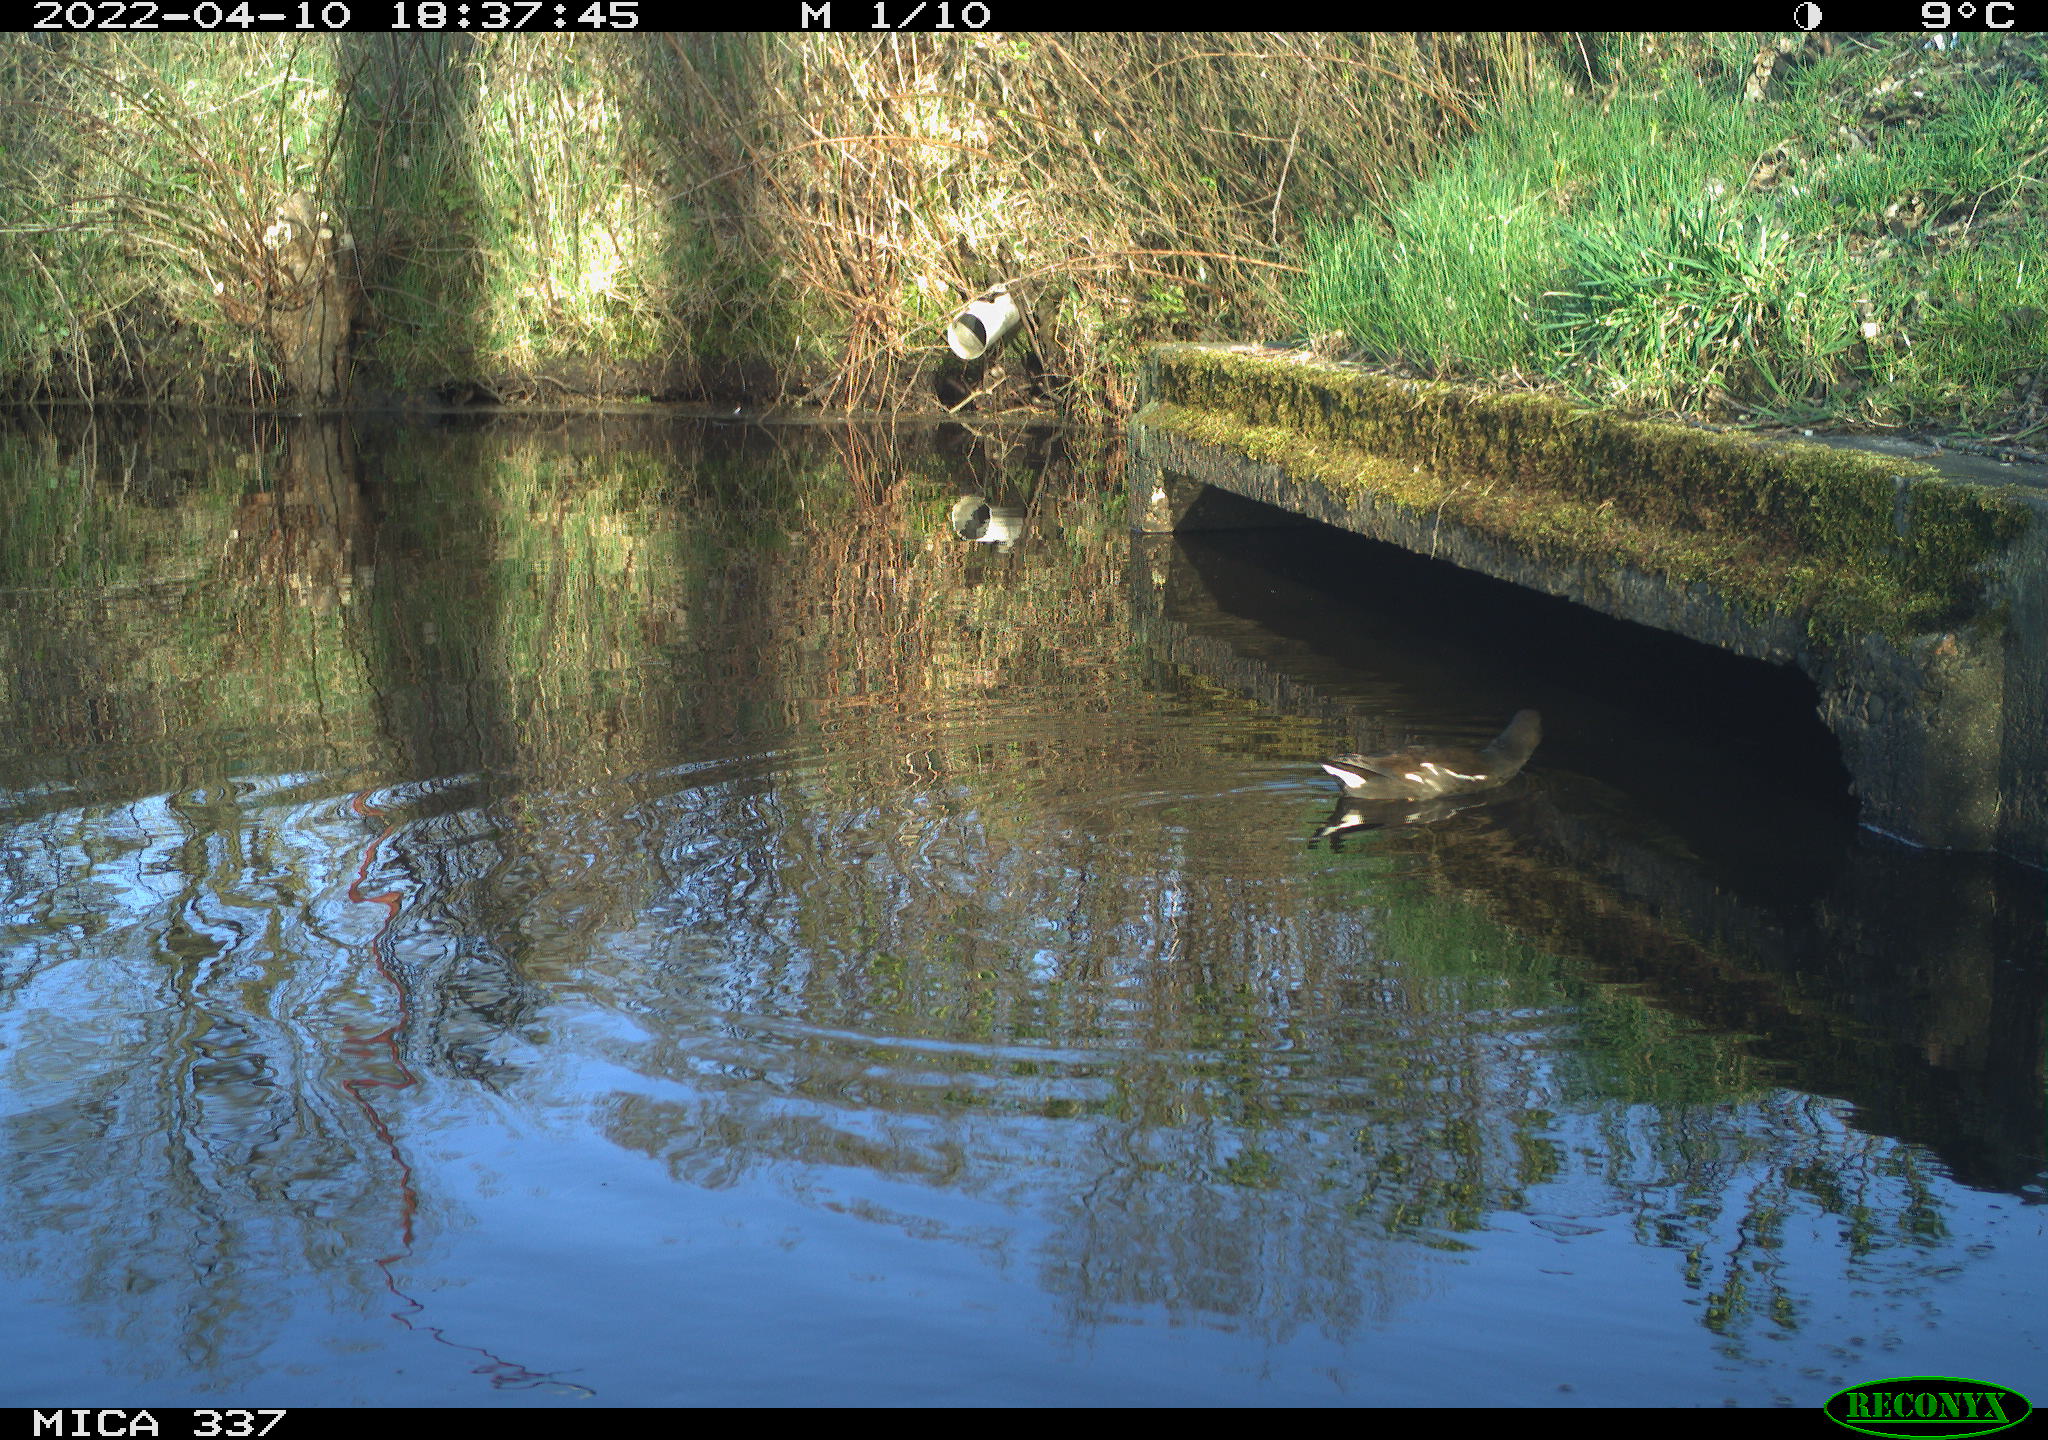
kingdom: Animalia
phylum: Chordata
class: Aves
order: Gruiformes
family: Rallidae
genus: Gallinula
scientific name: Gallinula chloropus
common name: Common moorhen
